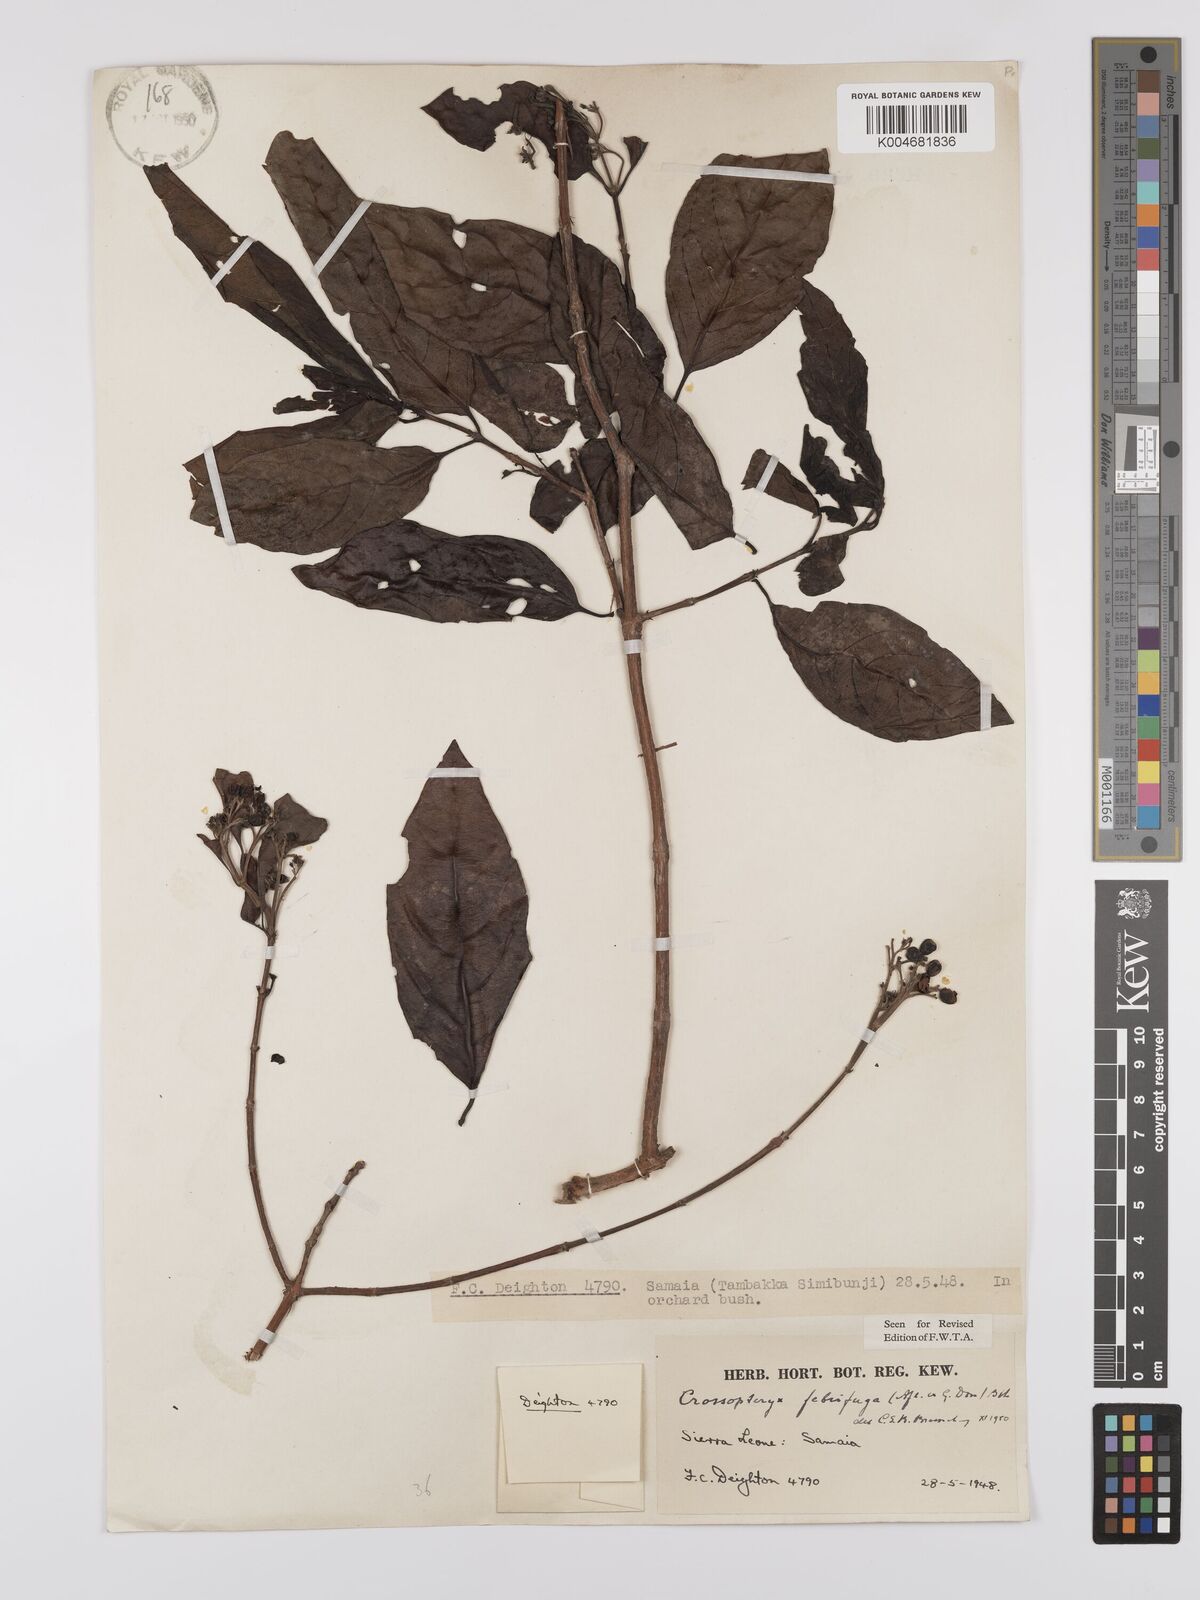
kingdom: Plantae
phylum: Tracheophyta
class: Magnoliopsida
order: Gentianales
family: Rubiaceae
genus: Crossopteryx
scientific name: Crossopteryx febrifuga
